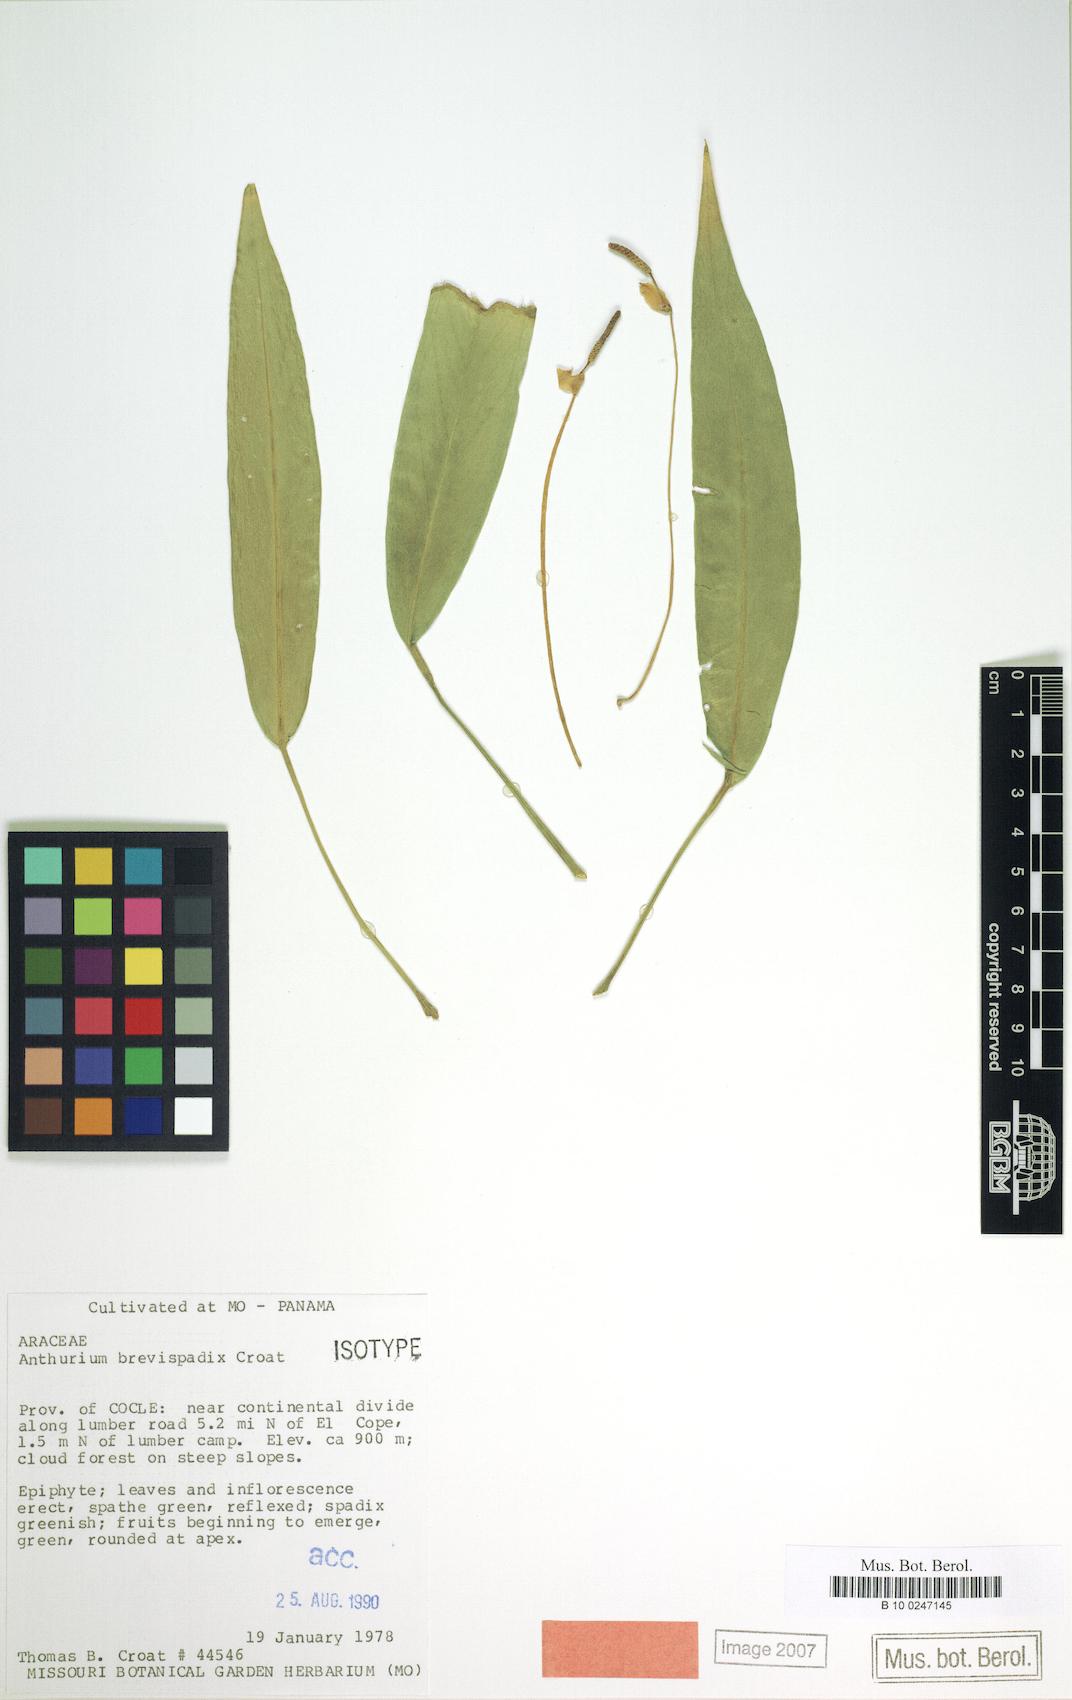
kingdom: Plantae
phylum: Tracheophyta
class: Liliopsida
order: Alismatales
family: Araceae
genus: Anthurium
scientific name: Anthurium brevispadix
